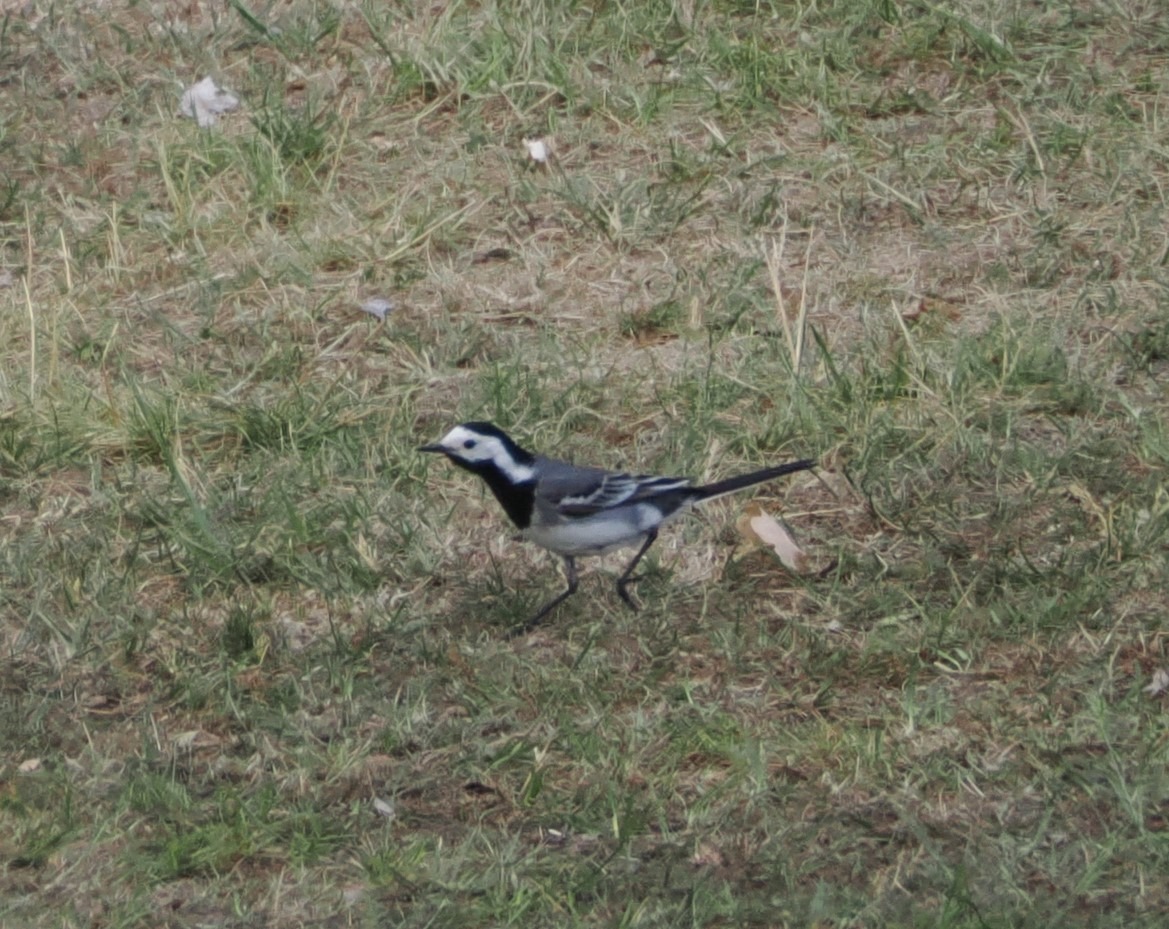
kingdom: Animalia
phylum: Chordata
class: Aves
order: Passeriformes
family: Motacillidae
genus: Motacilla
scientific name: Motacilla alba
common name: Hvid vipstjert
